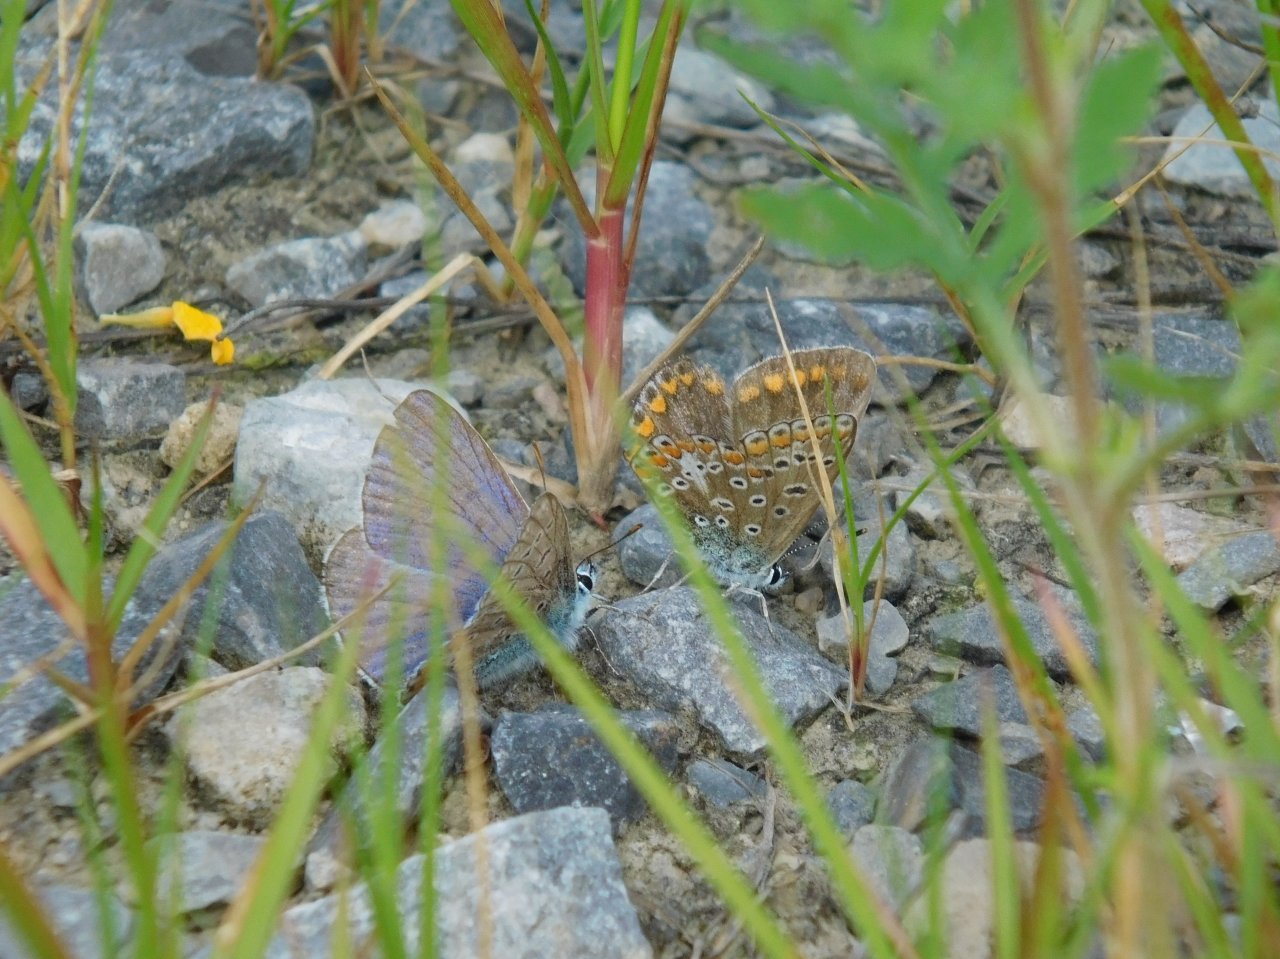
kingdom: Animalia
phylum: Arthropoda
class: Insecta
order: Lepidoptera
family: Lycaenidae
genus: Polyommatus
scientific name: Polyommatus icarus
